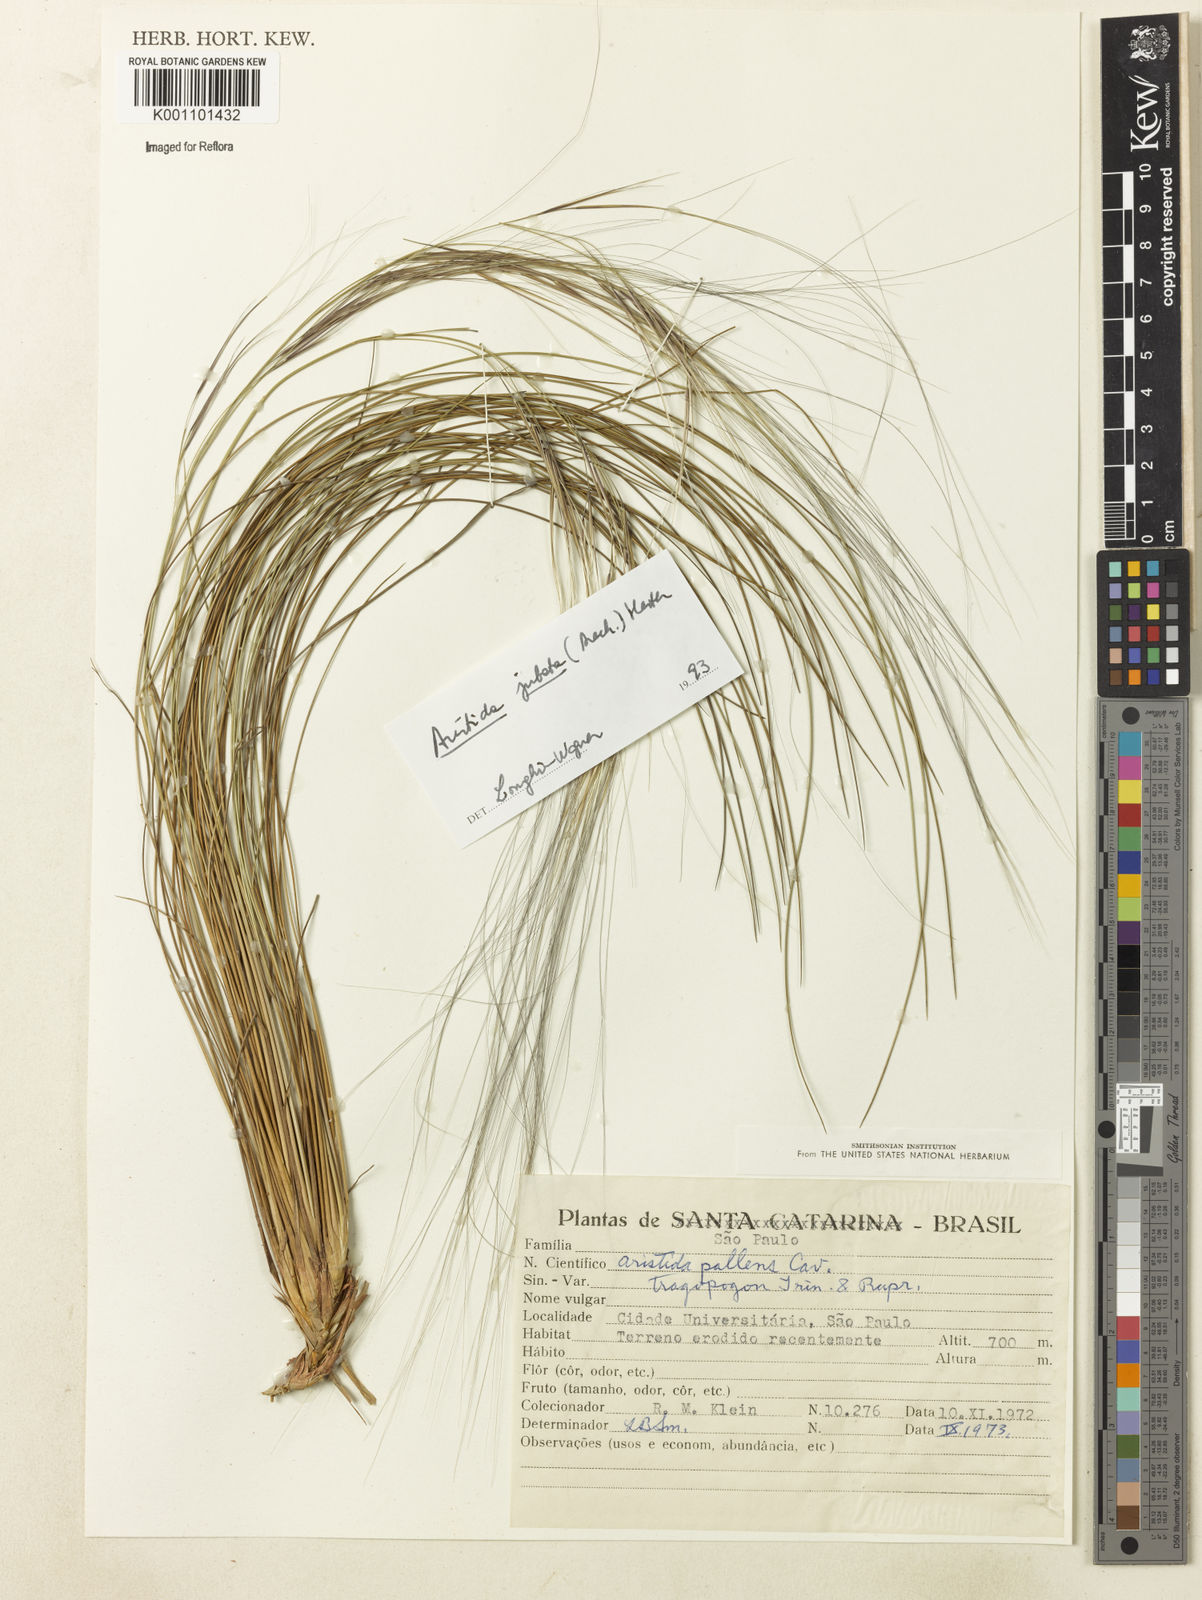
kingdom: Plantae
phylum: Tracheophyta
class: Liliopsida
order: Poales
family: Poaceae
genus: Aristida
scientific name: Aristida jubata
